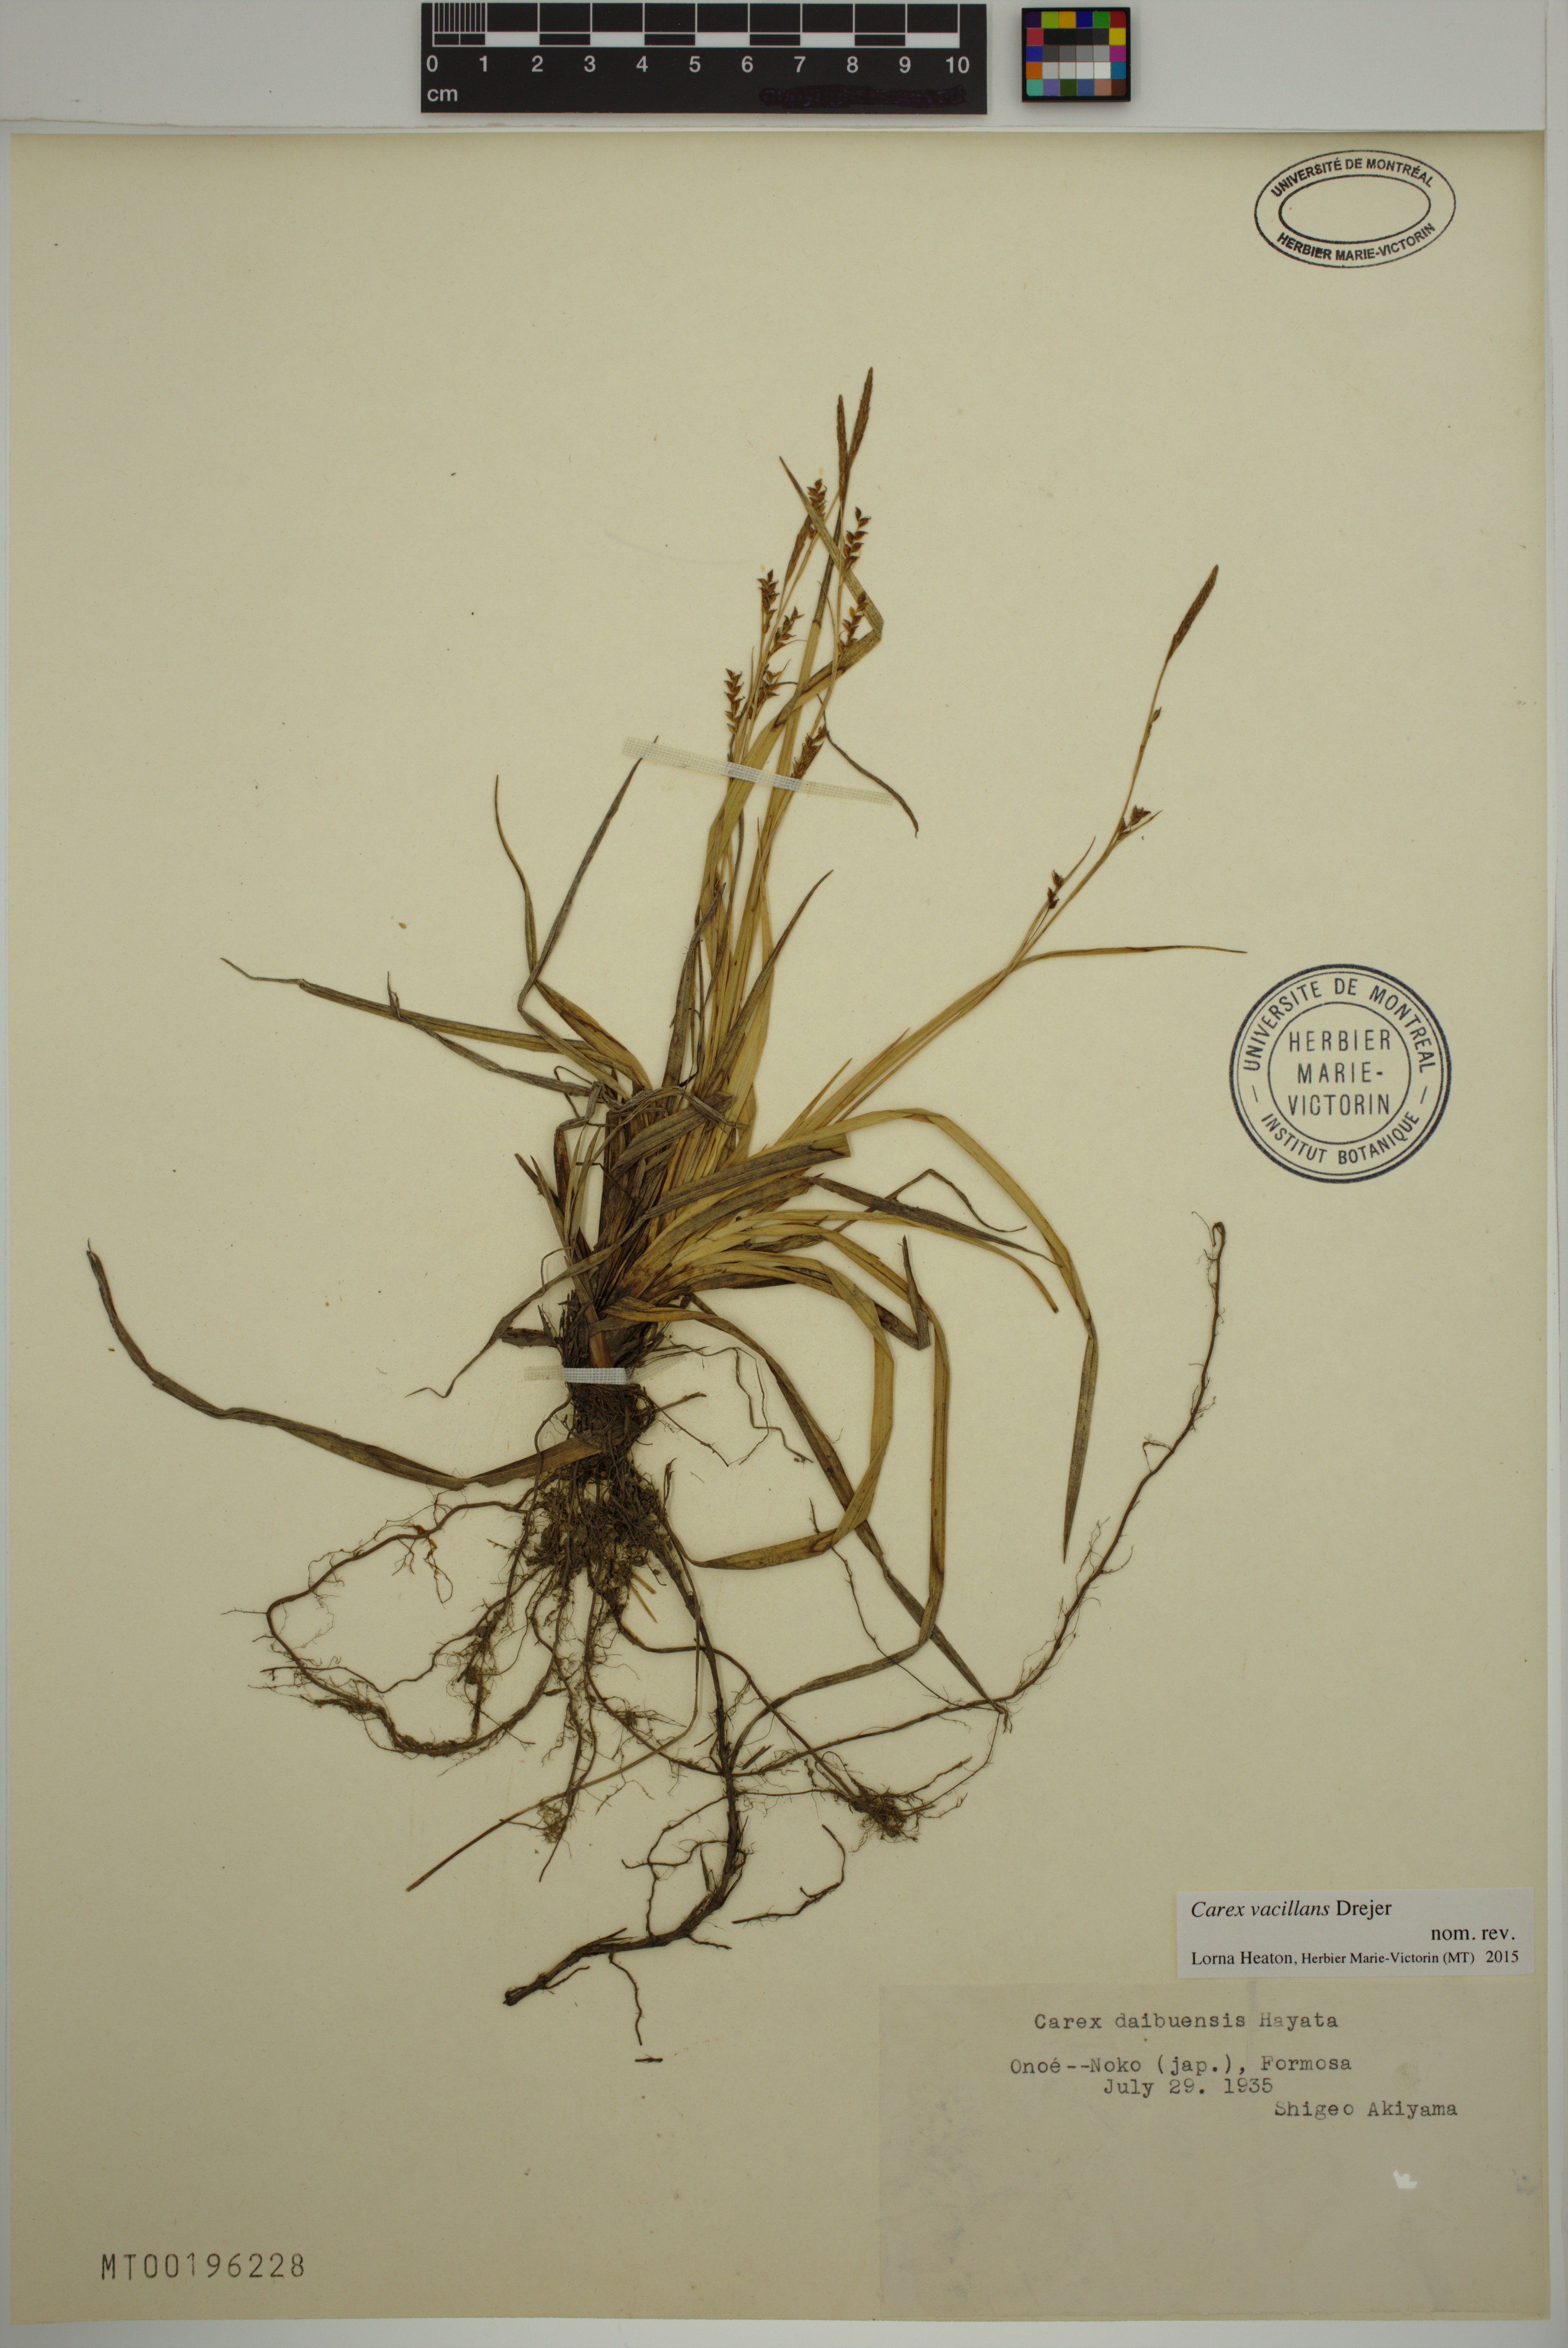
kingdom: Plantae
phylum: Tracheophyta
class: Liliopsida
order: Poales
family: Cyperaceae
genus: Carex
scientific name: Carex vacillans
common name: Sedge
